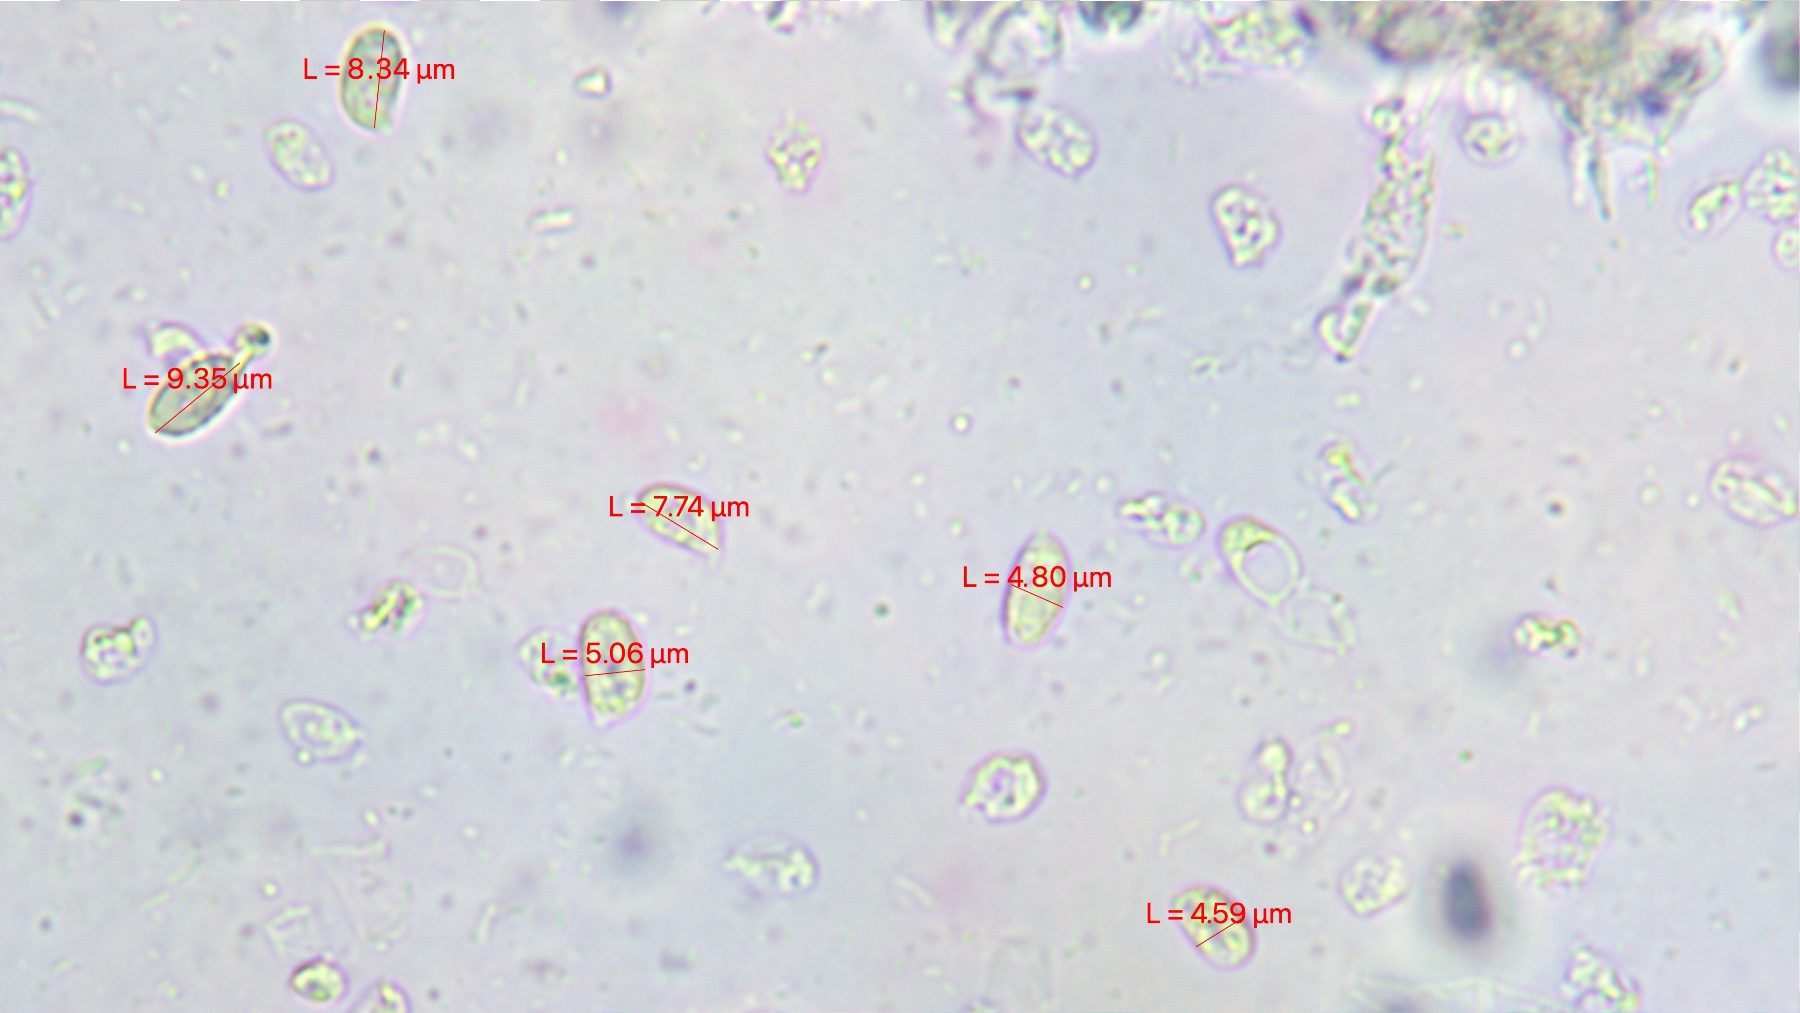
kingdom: Fungi
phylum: Basidiomycota
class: Agaricomycetes
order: Agaricales
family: Clavariaceae
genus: Clavaria
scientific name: Clavaria tenuipes
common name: isabellafarvet køllesvamp
